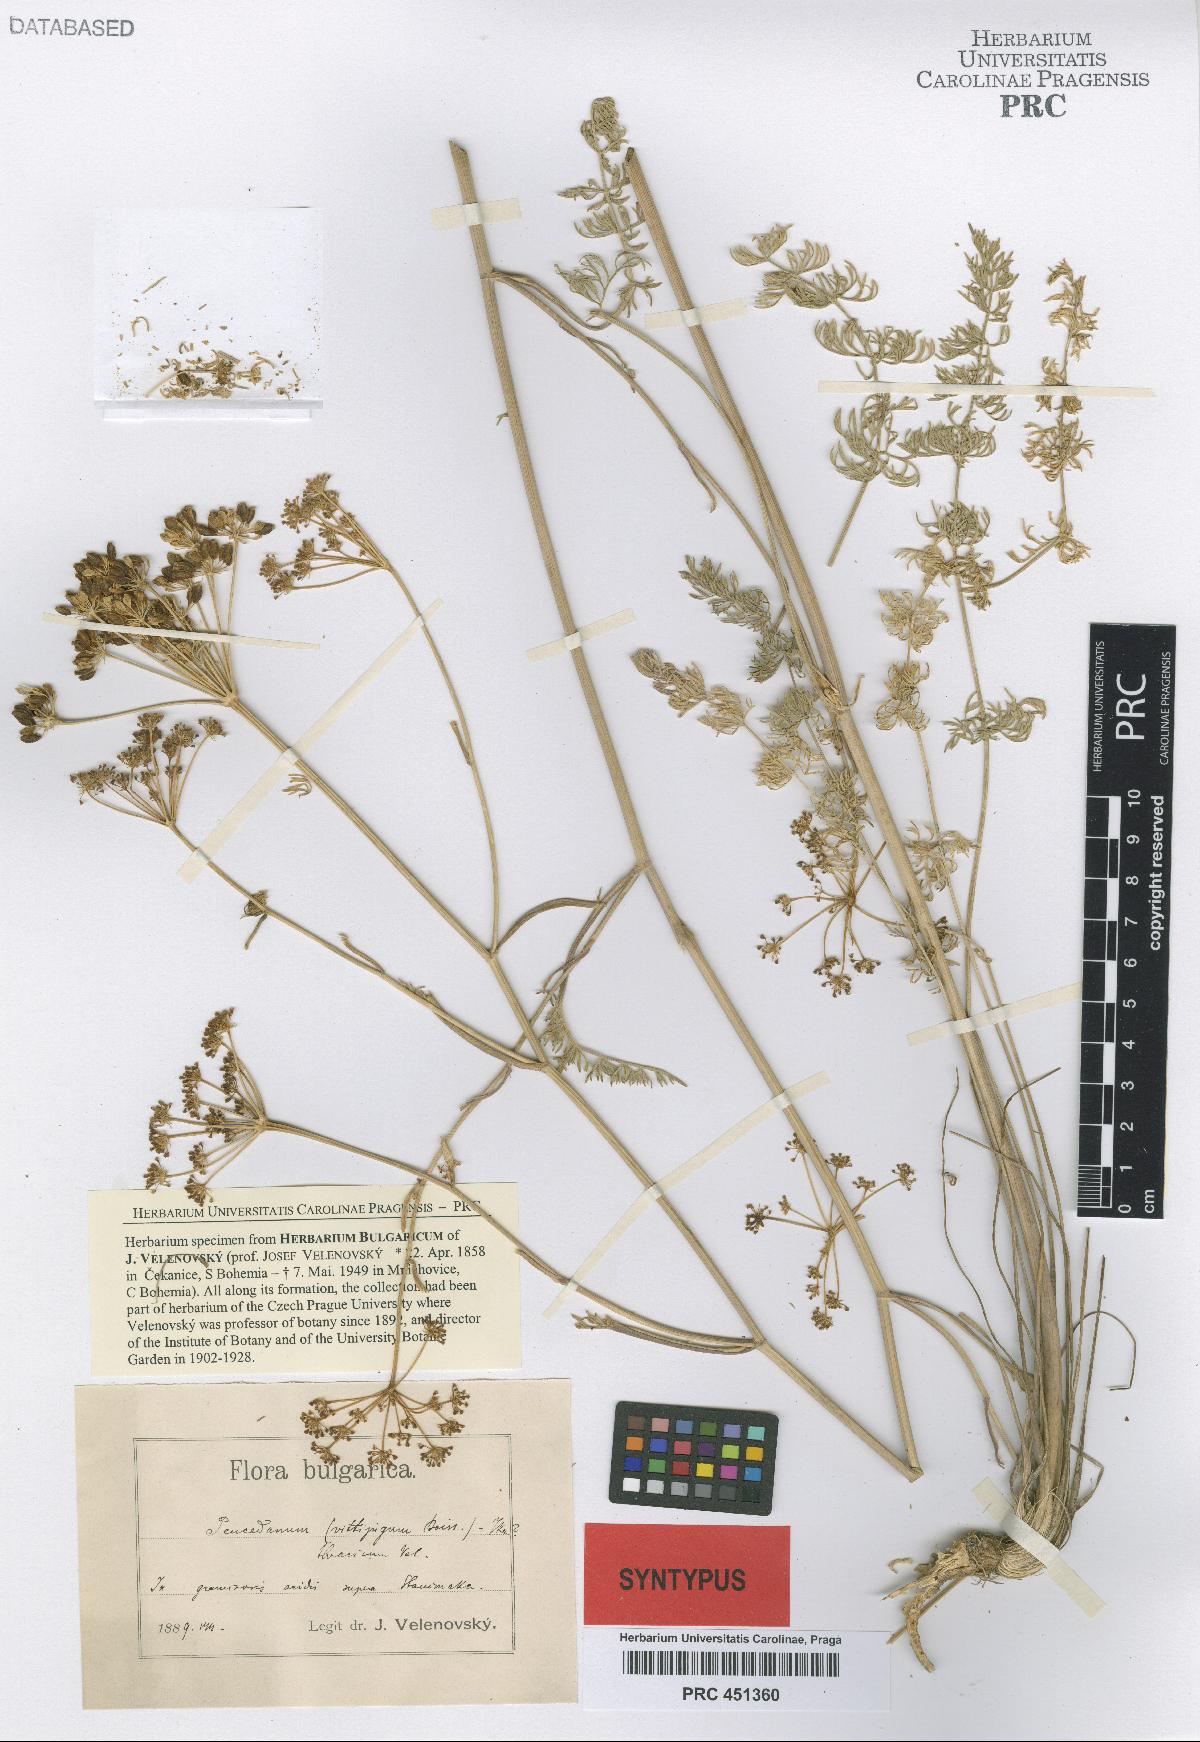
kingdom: Plantae
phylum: Tracheophyta
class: Magnoliopsida
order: Apiales
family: Apiaceae
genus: Dichoropetalum
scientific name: Dichoropetalum vittijugum
